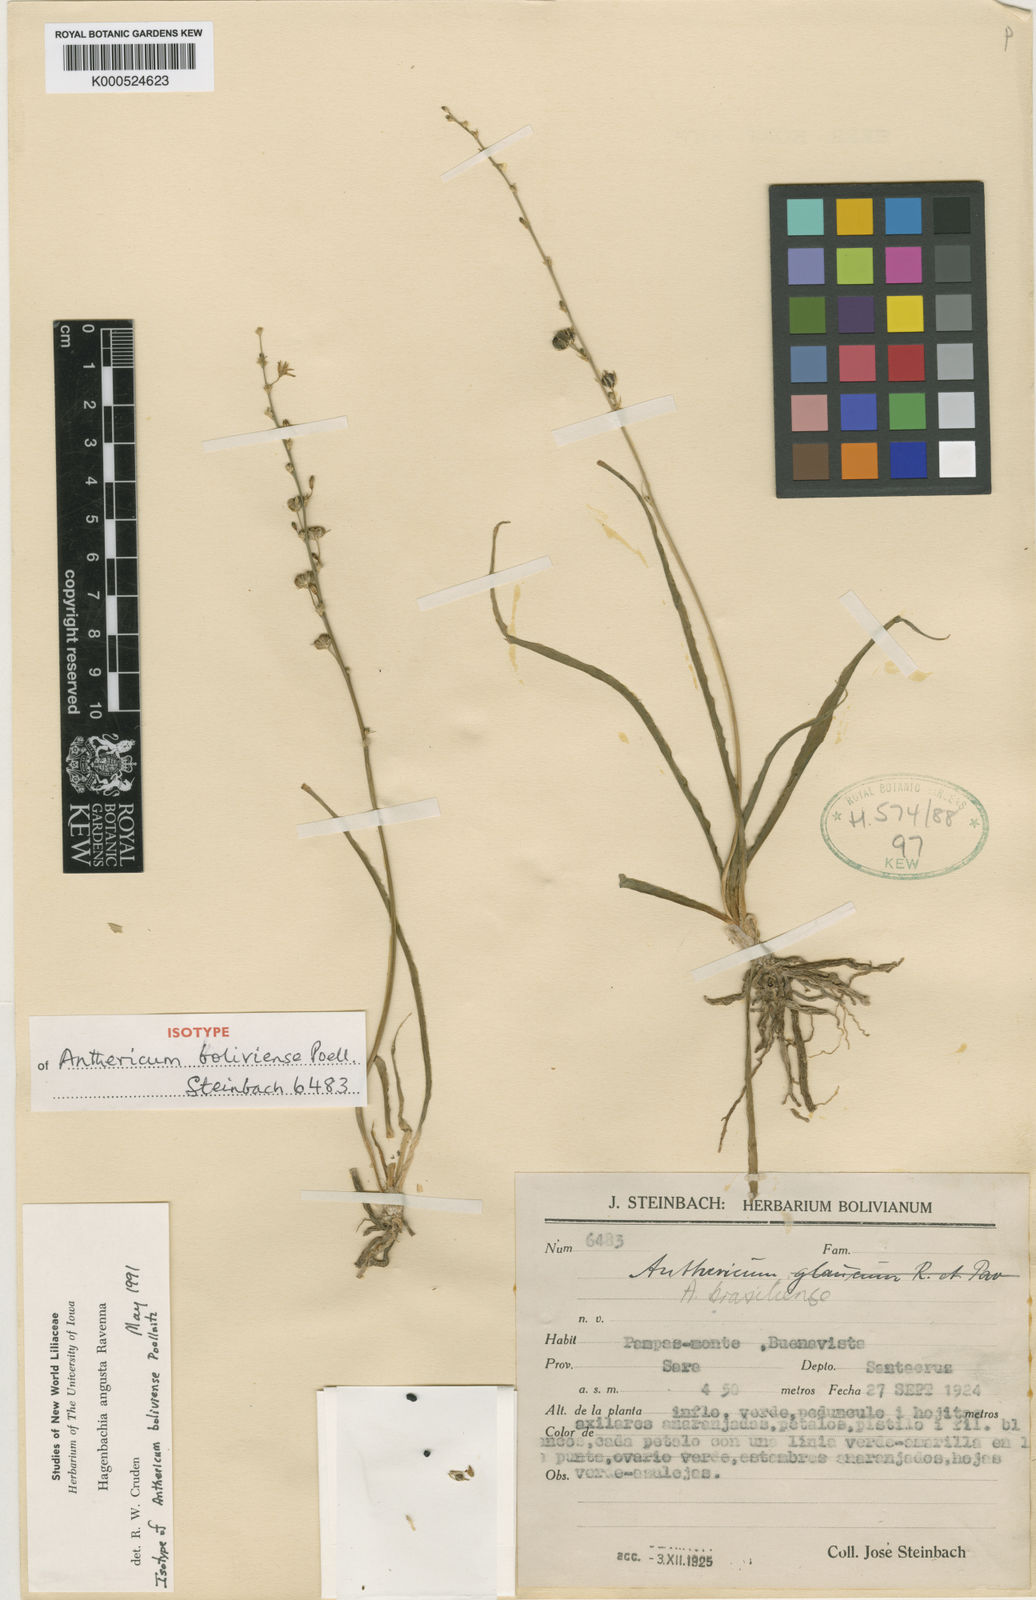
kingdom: Plantae
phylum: Tracheophyta
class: Liliopsida
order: Asparagales
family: Asparagaceae
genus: Hagenbachia
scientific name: Hagenbachia matogrossensis
